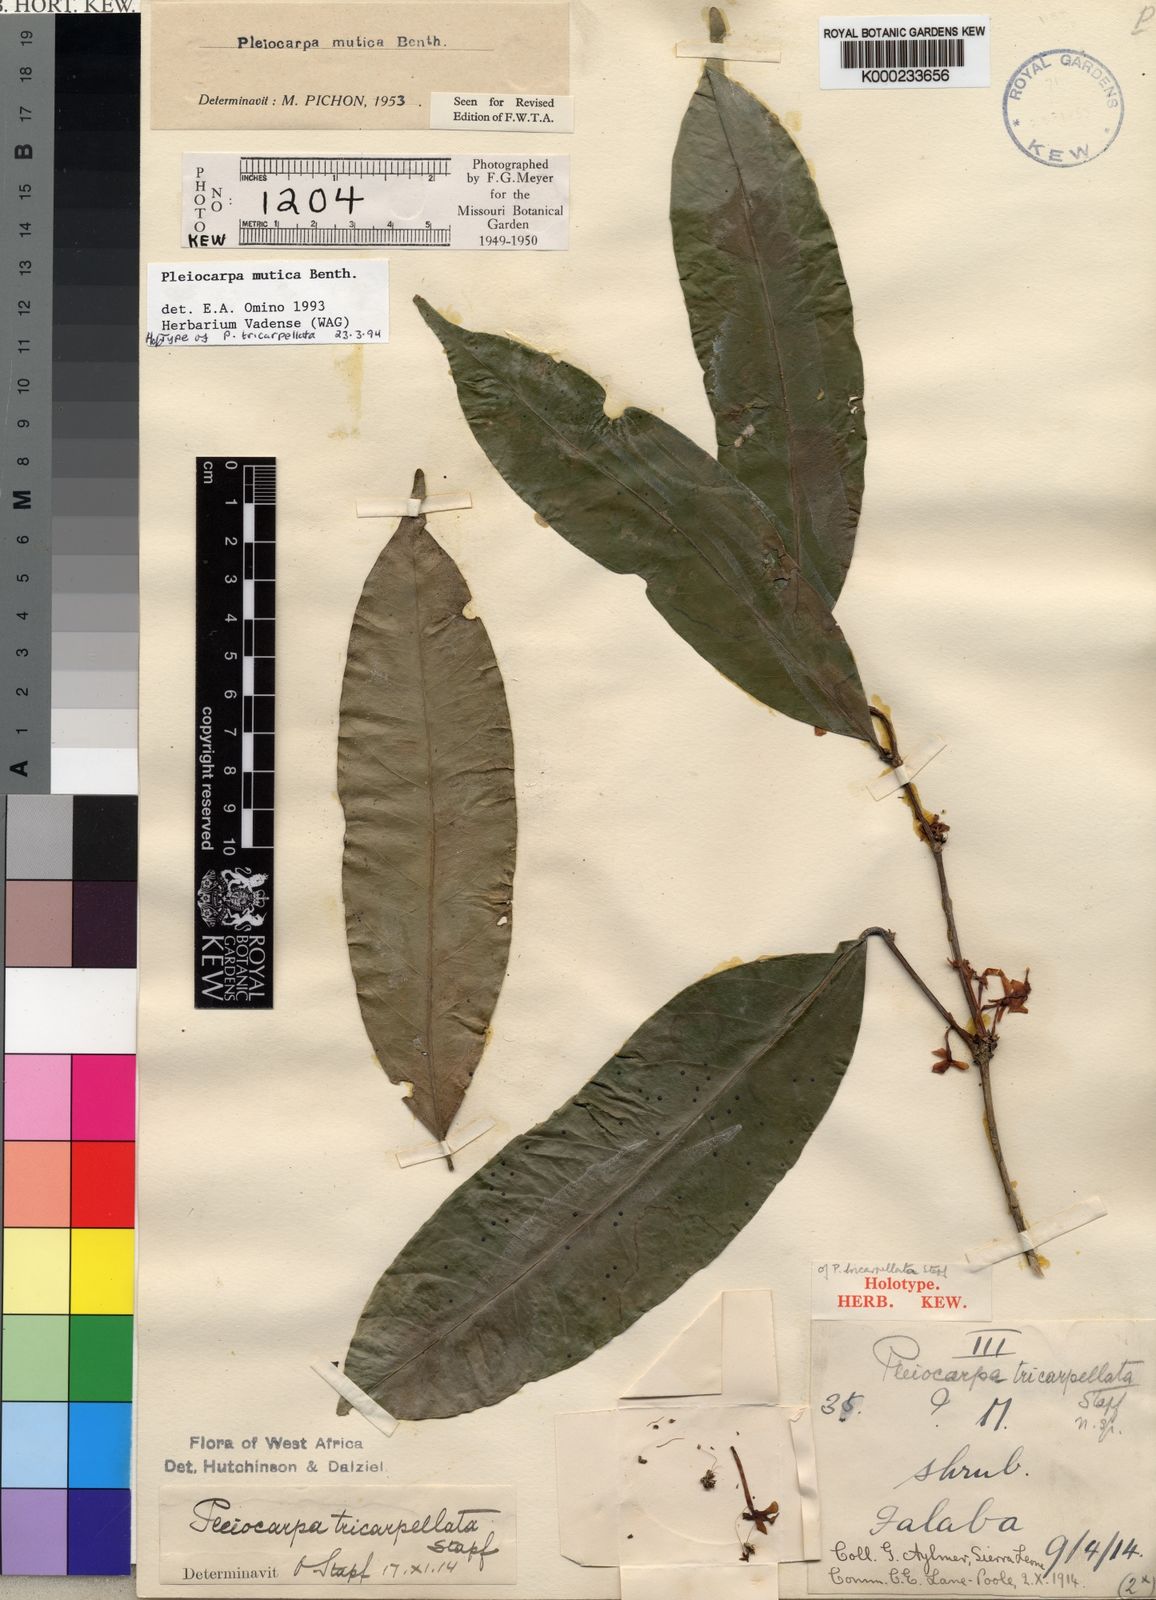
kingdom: Plantae
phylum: Tracheophyta
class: Magnoliopsida
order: Gentianales
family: Apocynaceae
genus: Pleiocarpa
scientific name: Pleiocarpa mutica
